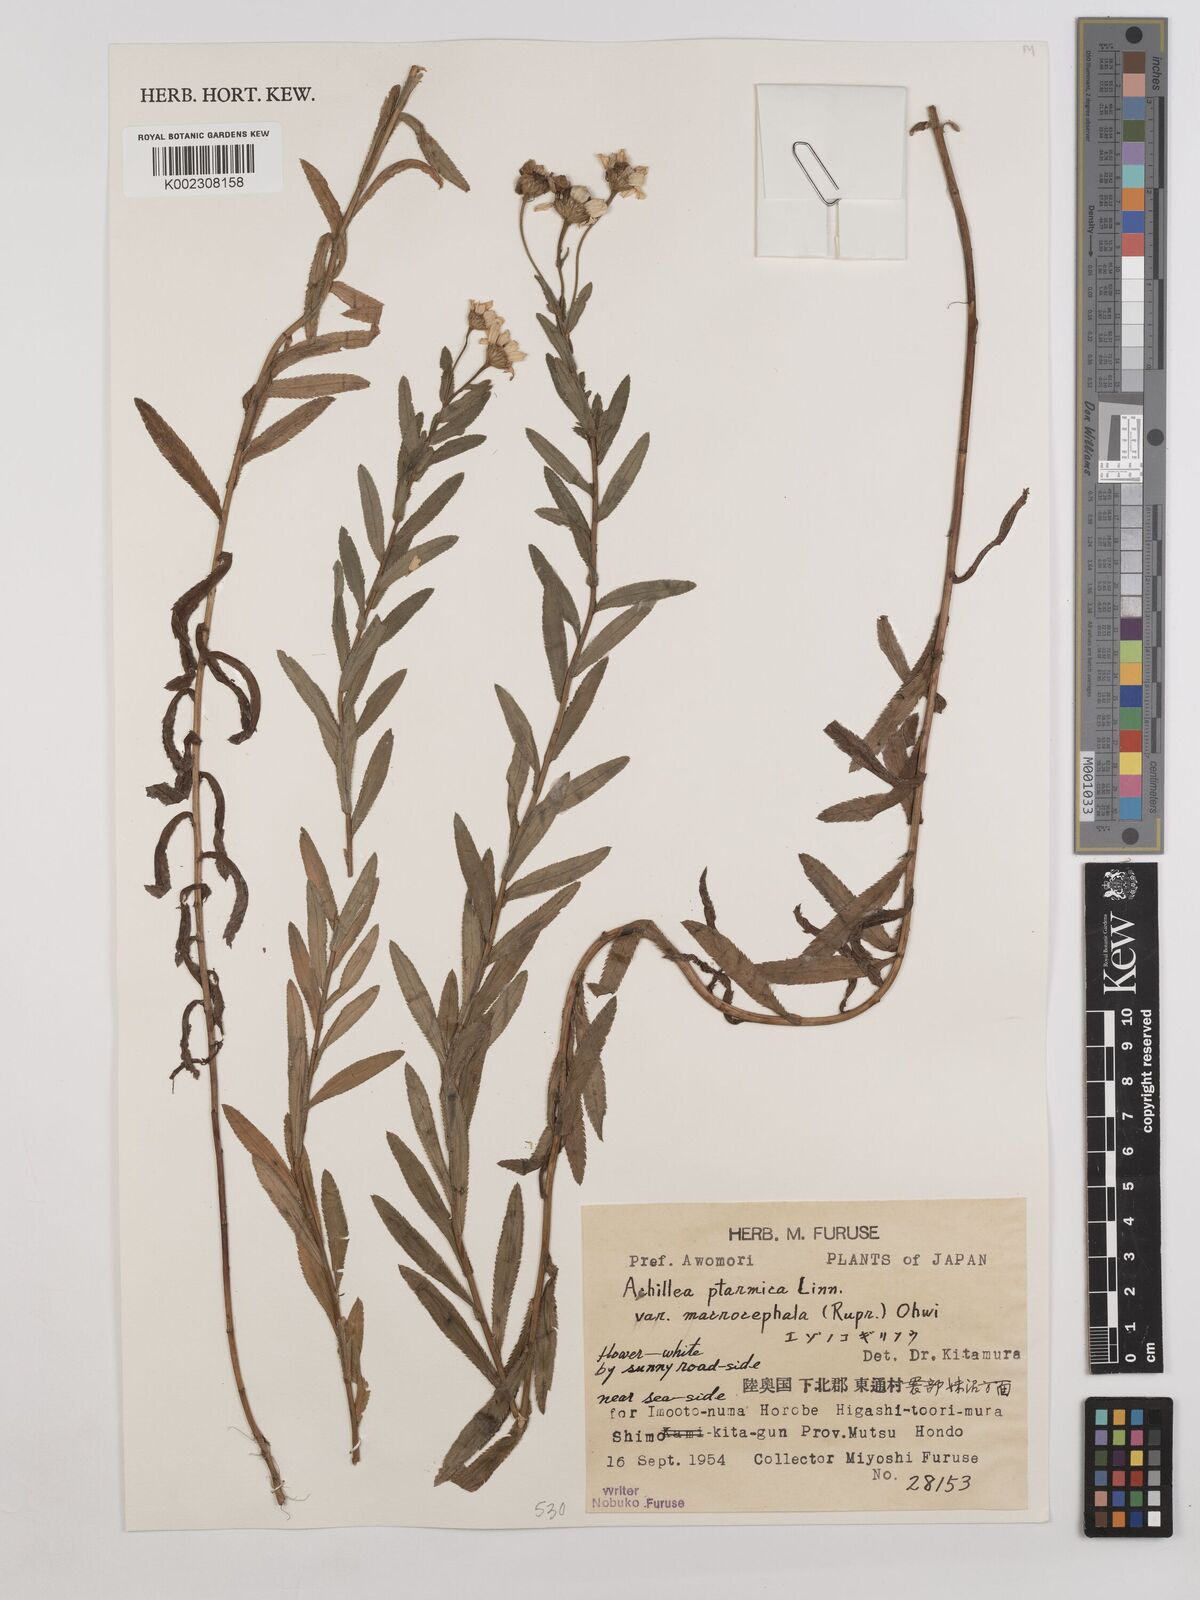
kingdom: Plantae
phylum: Tracheophyta
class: Magnoliopsida
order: Asterales
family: Asteraceae
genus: Achillea
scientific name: Achillea ptarmica
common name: Sneezeweed
